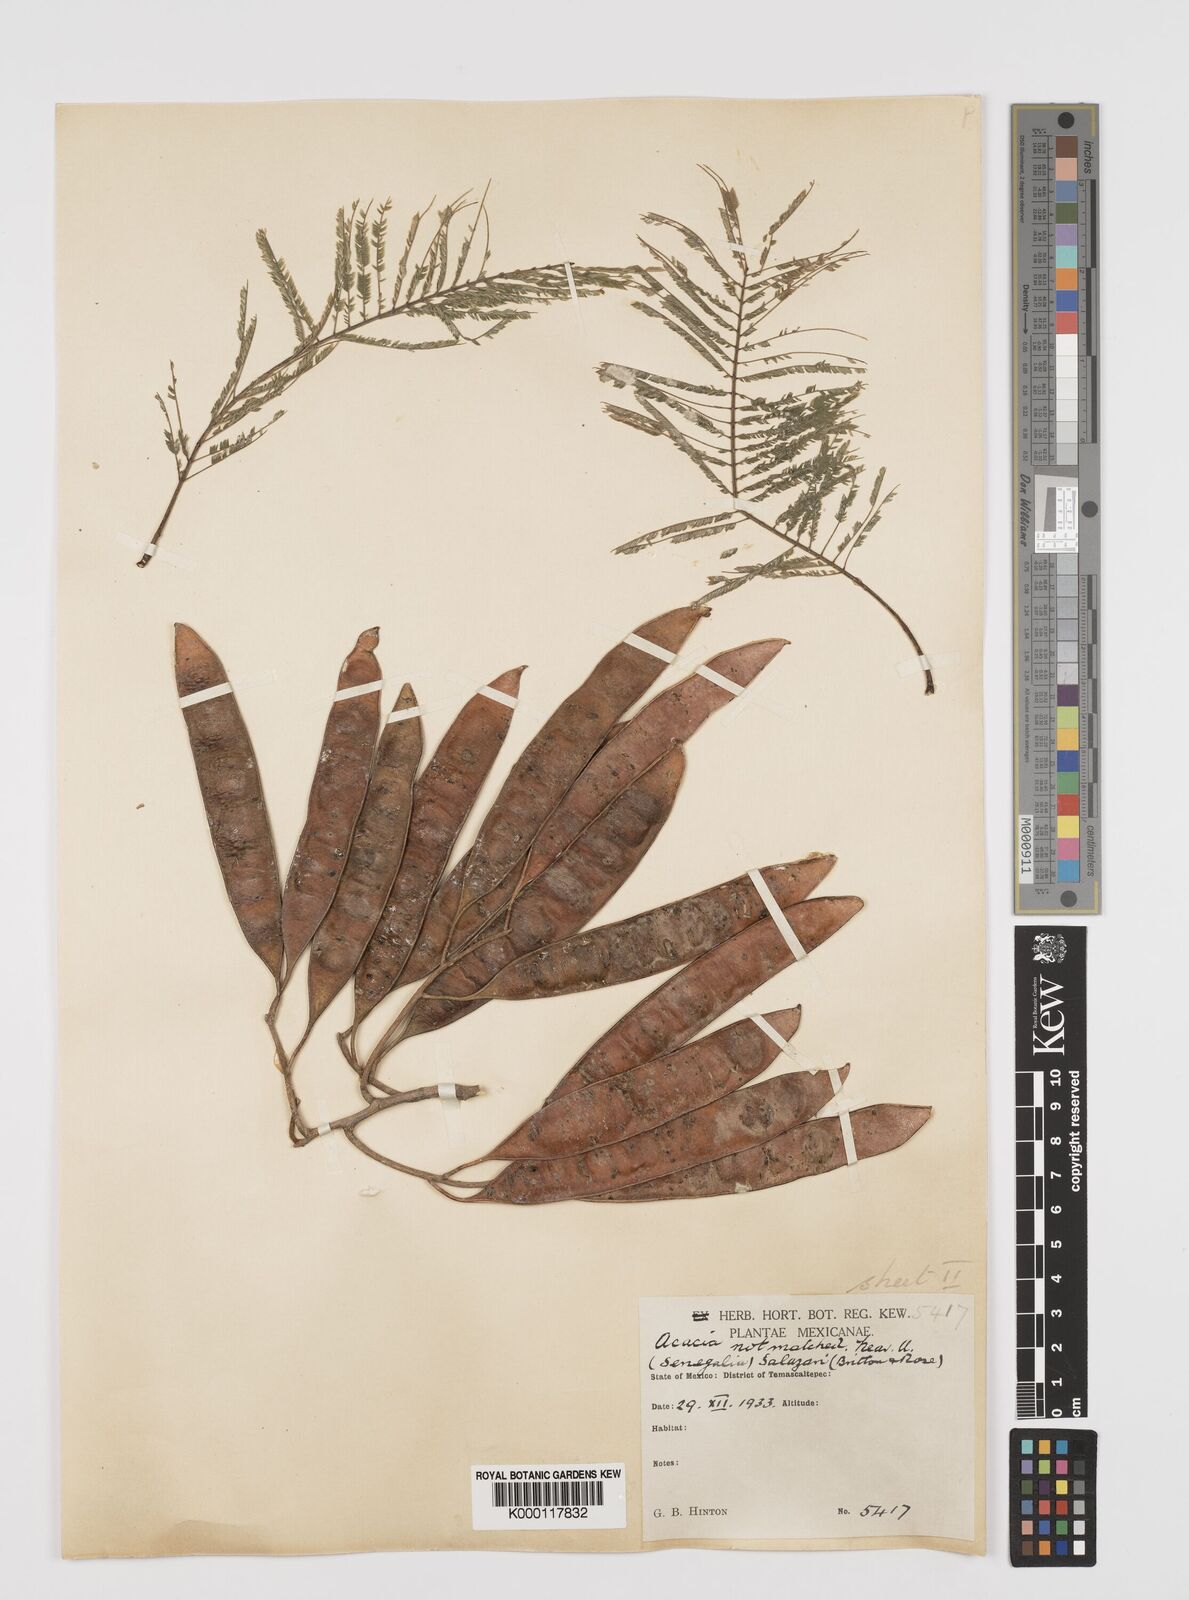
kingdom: Plantae
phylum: Tracheophyta
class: Magnoliopsida
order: Fabales
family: Fabaceae
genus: Mariosousa
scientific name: Mariosousa acatlensis
